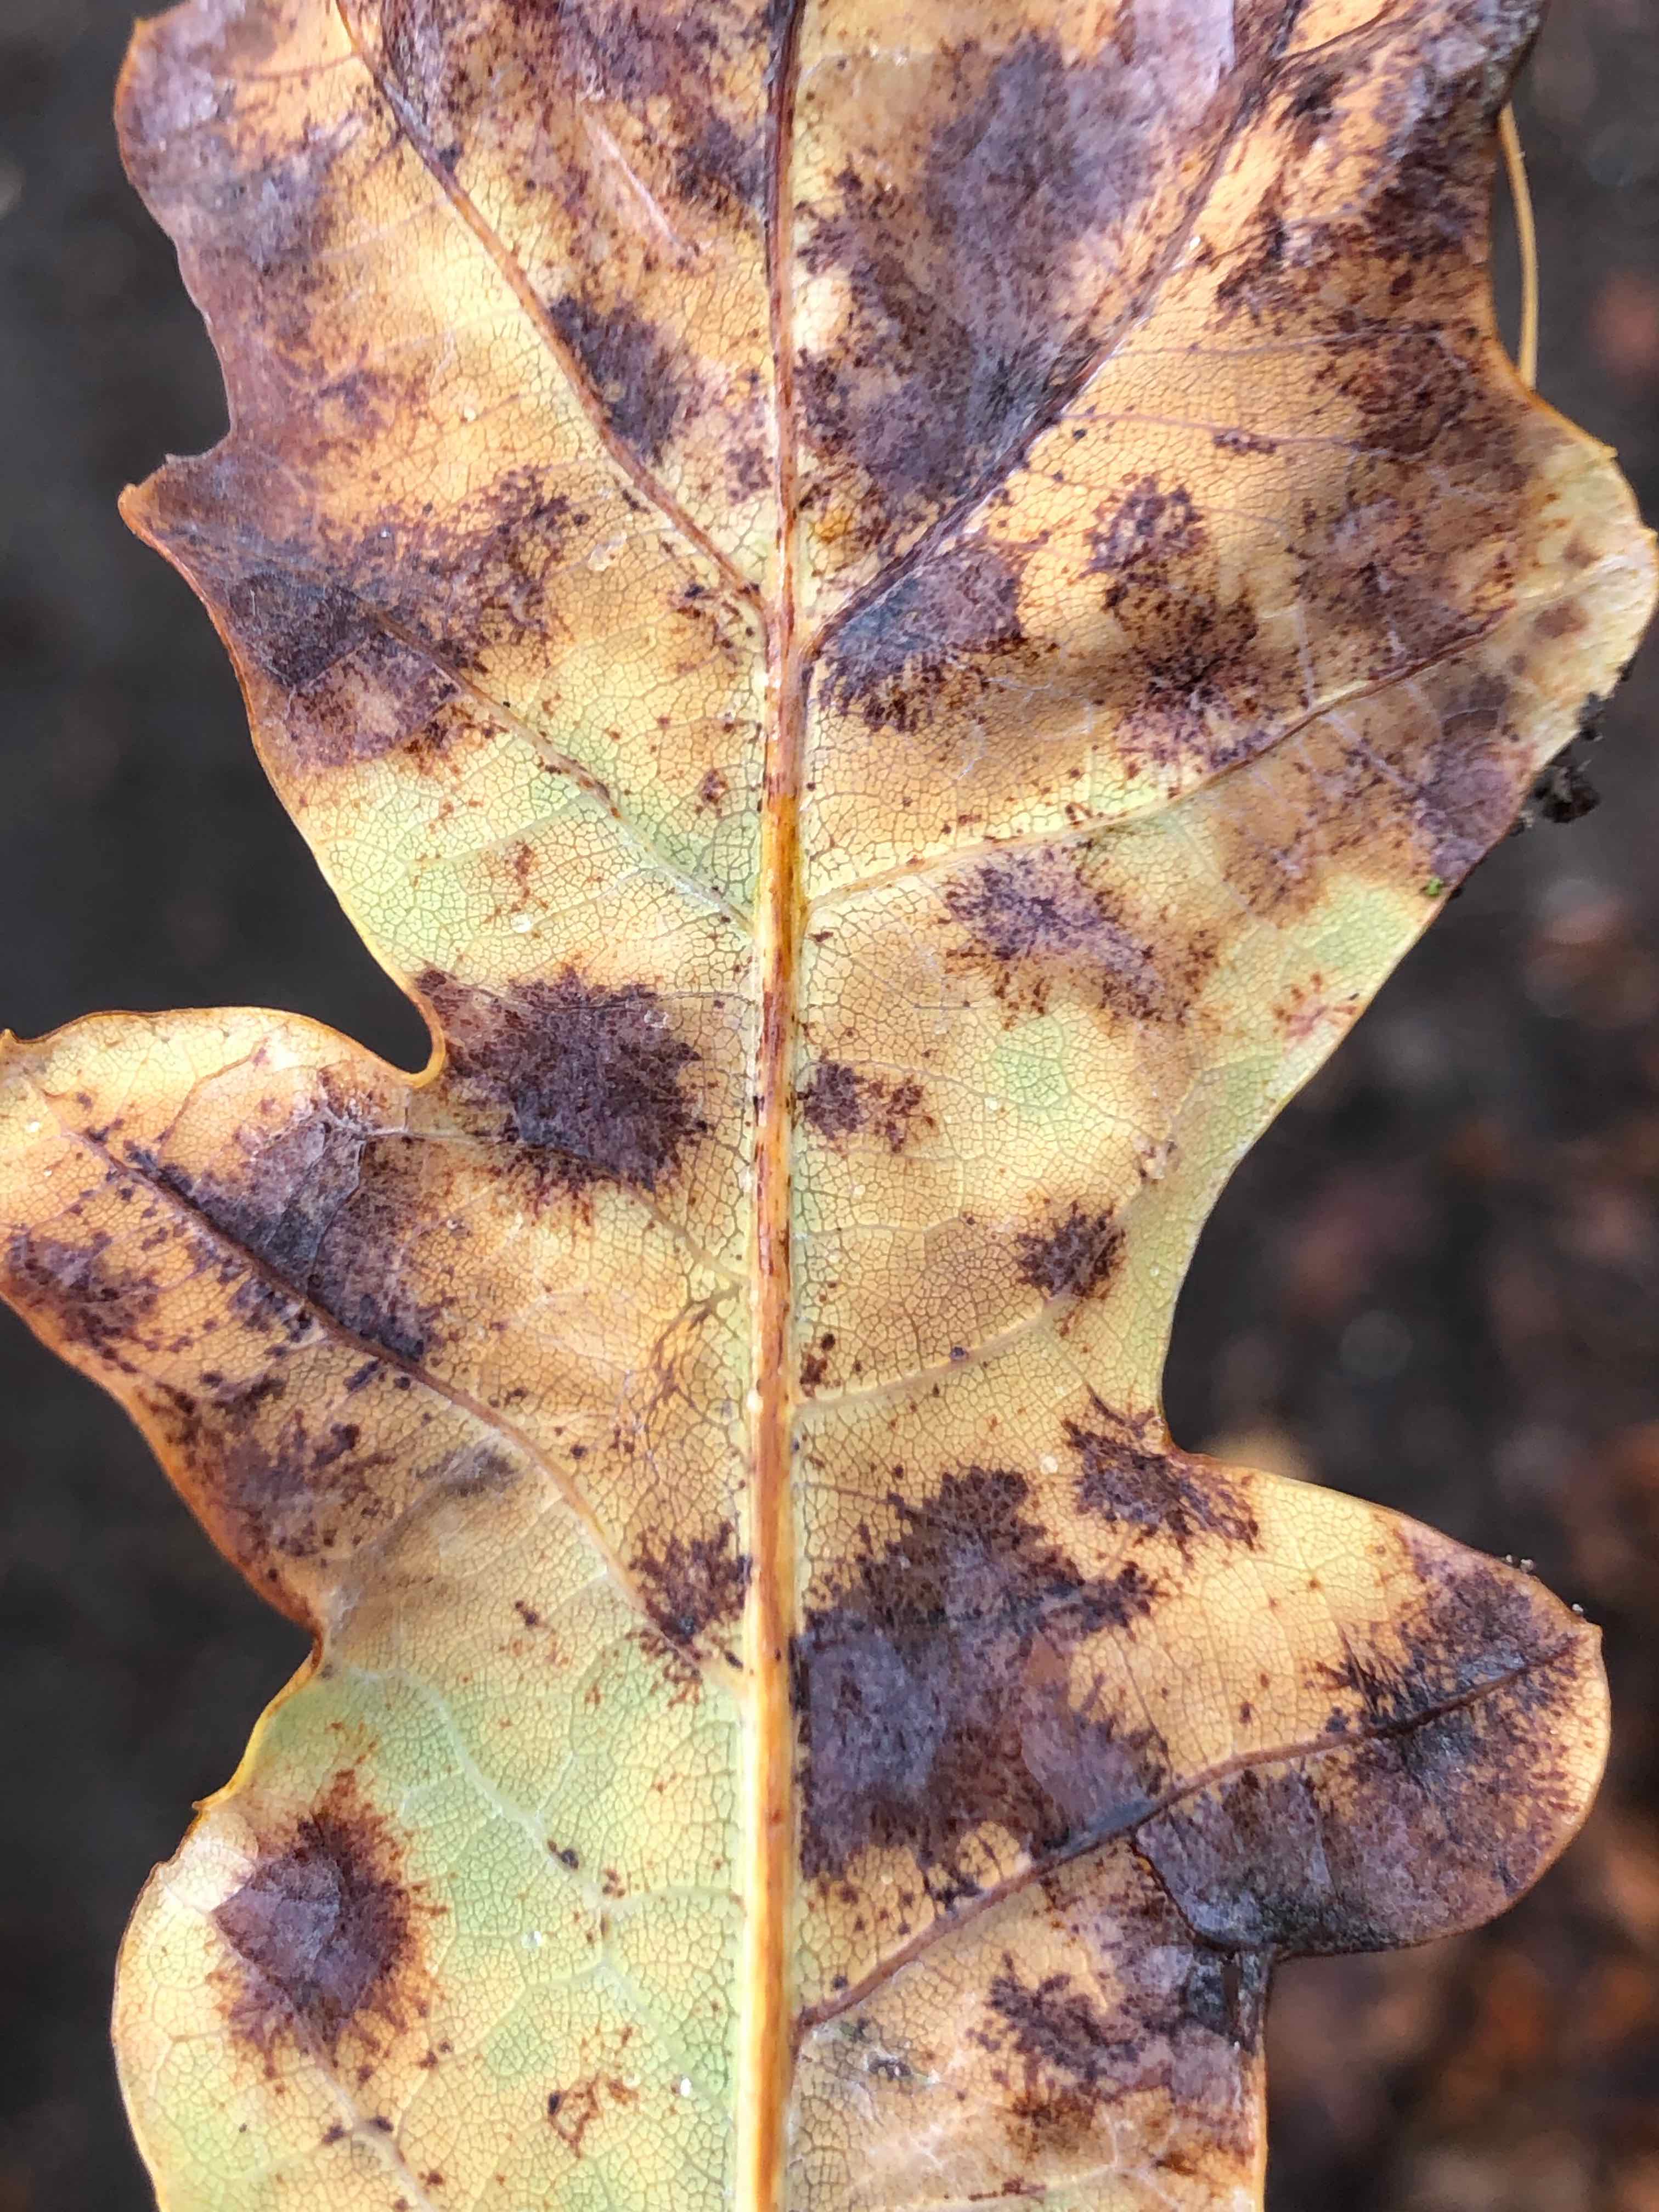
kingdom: Fungi
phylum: Ascomycota
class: Leotiomycetes
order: Helotiales
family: Erysiphaceae
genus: Erysiphe
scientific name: Erysiphe alphitoides
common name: ege-meldug
